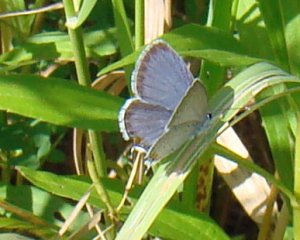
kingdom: Animalia
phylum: Arthropoda
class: Insecta
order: Lepidoptera
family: Lycaenidae
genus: Elkalyce
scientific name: Elkalyce comyntas
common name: Eastern Tailed-Blue
